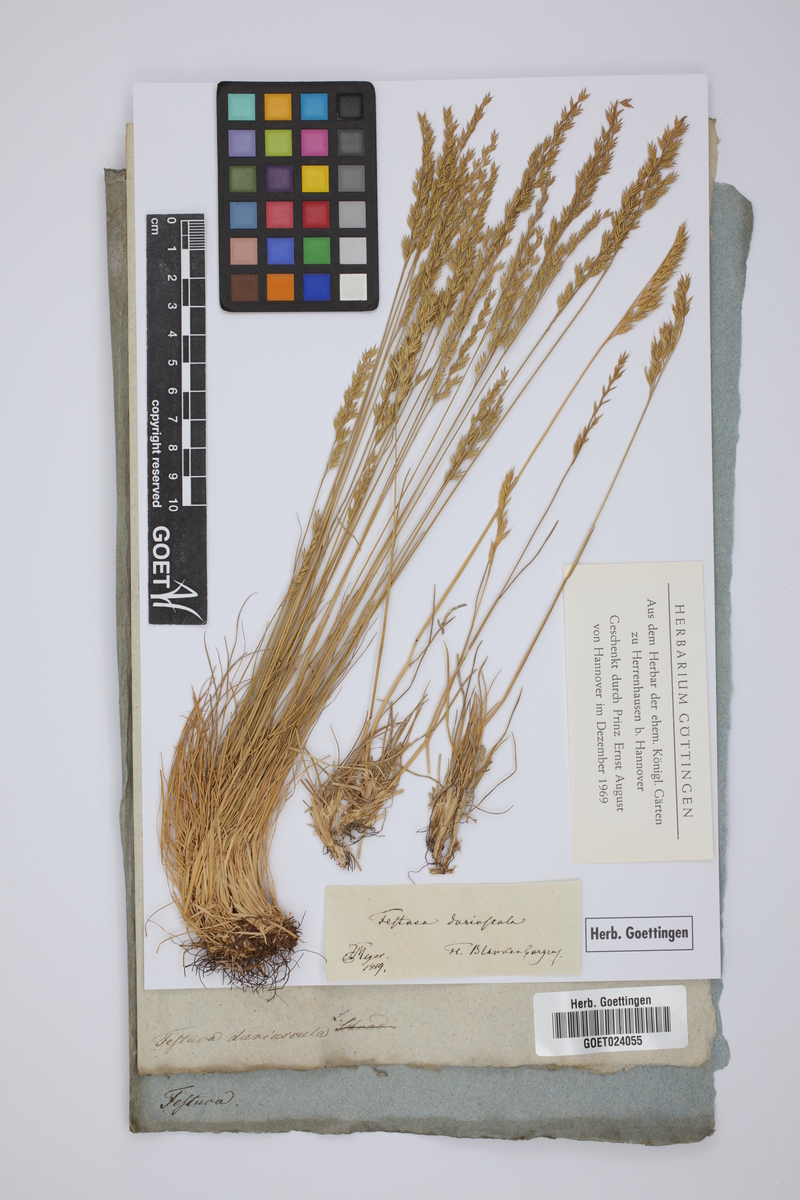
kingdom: Plantae
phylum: Tracheophyta
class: Liliopsida
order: Poales
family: Poaceae
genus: Festuca
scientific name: Festuca rubra
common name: Red fescue
